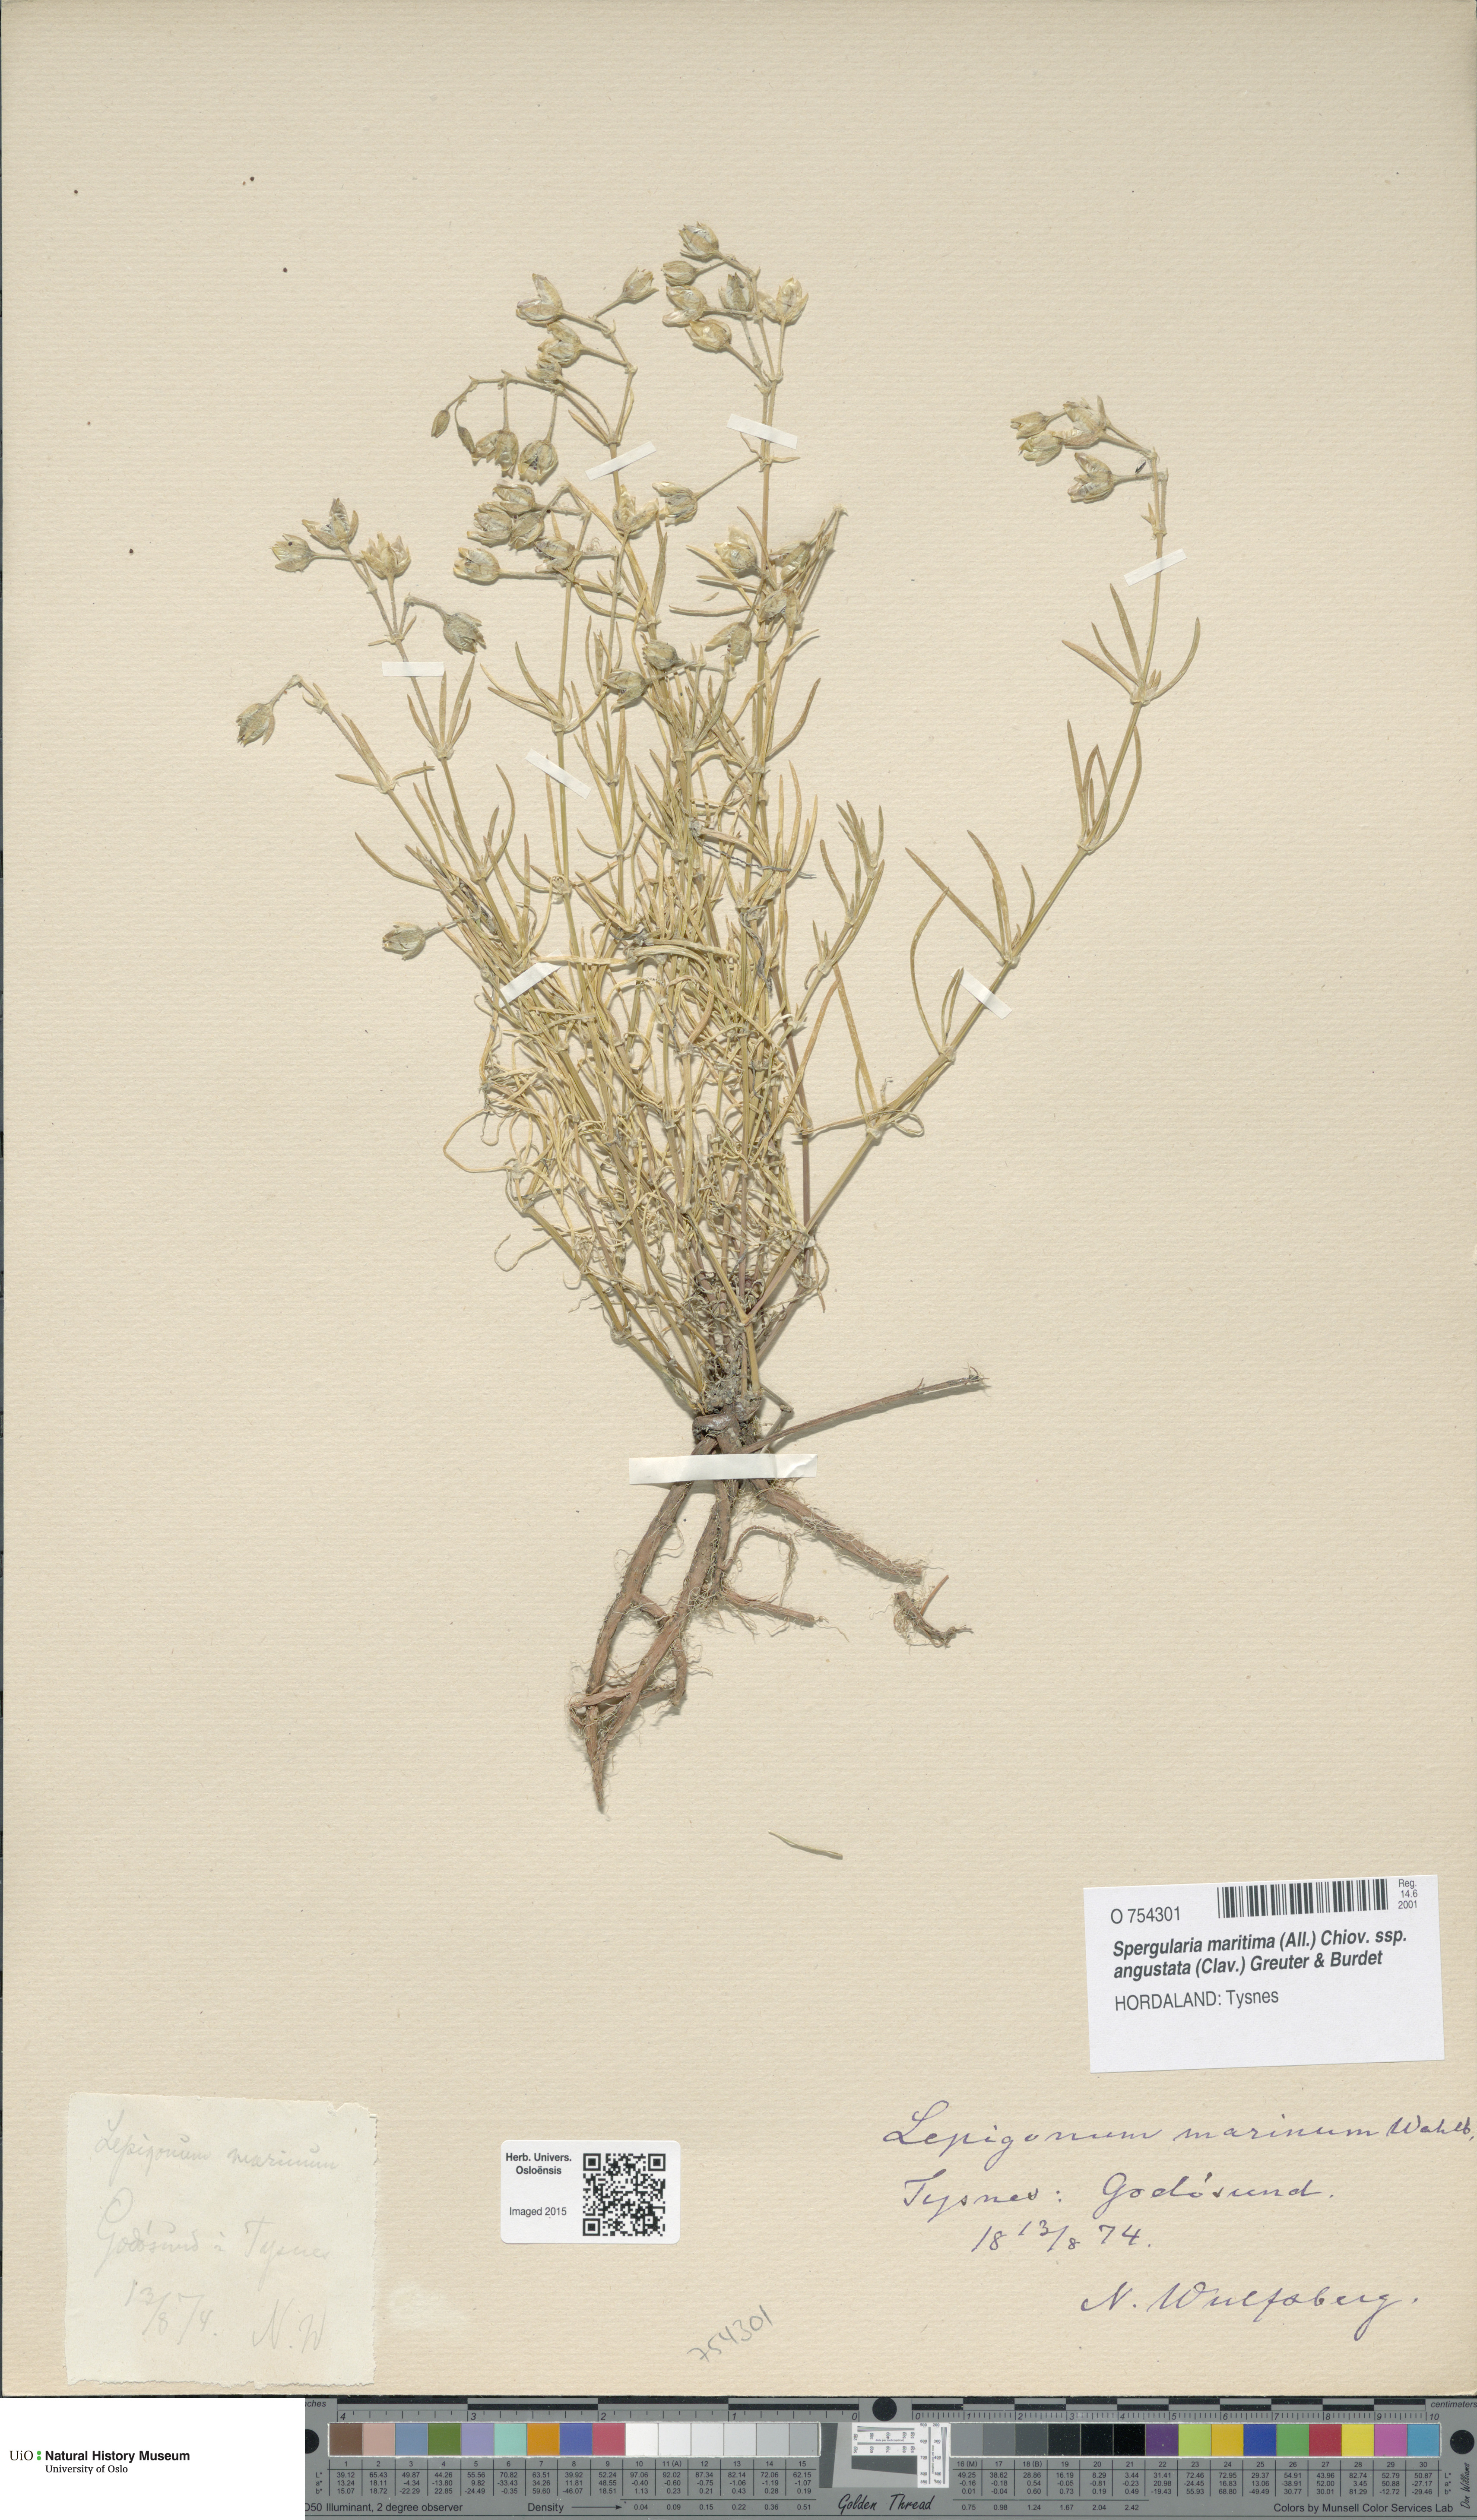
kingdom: Plantae
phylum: Tracheophyta
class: Magnoliopsida
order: Caryophyllales
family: Caryophyllaceae
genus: Spergularia
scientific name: Spergularia marina
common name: Lesser sea-spurrey
